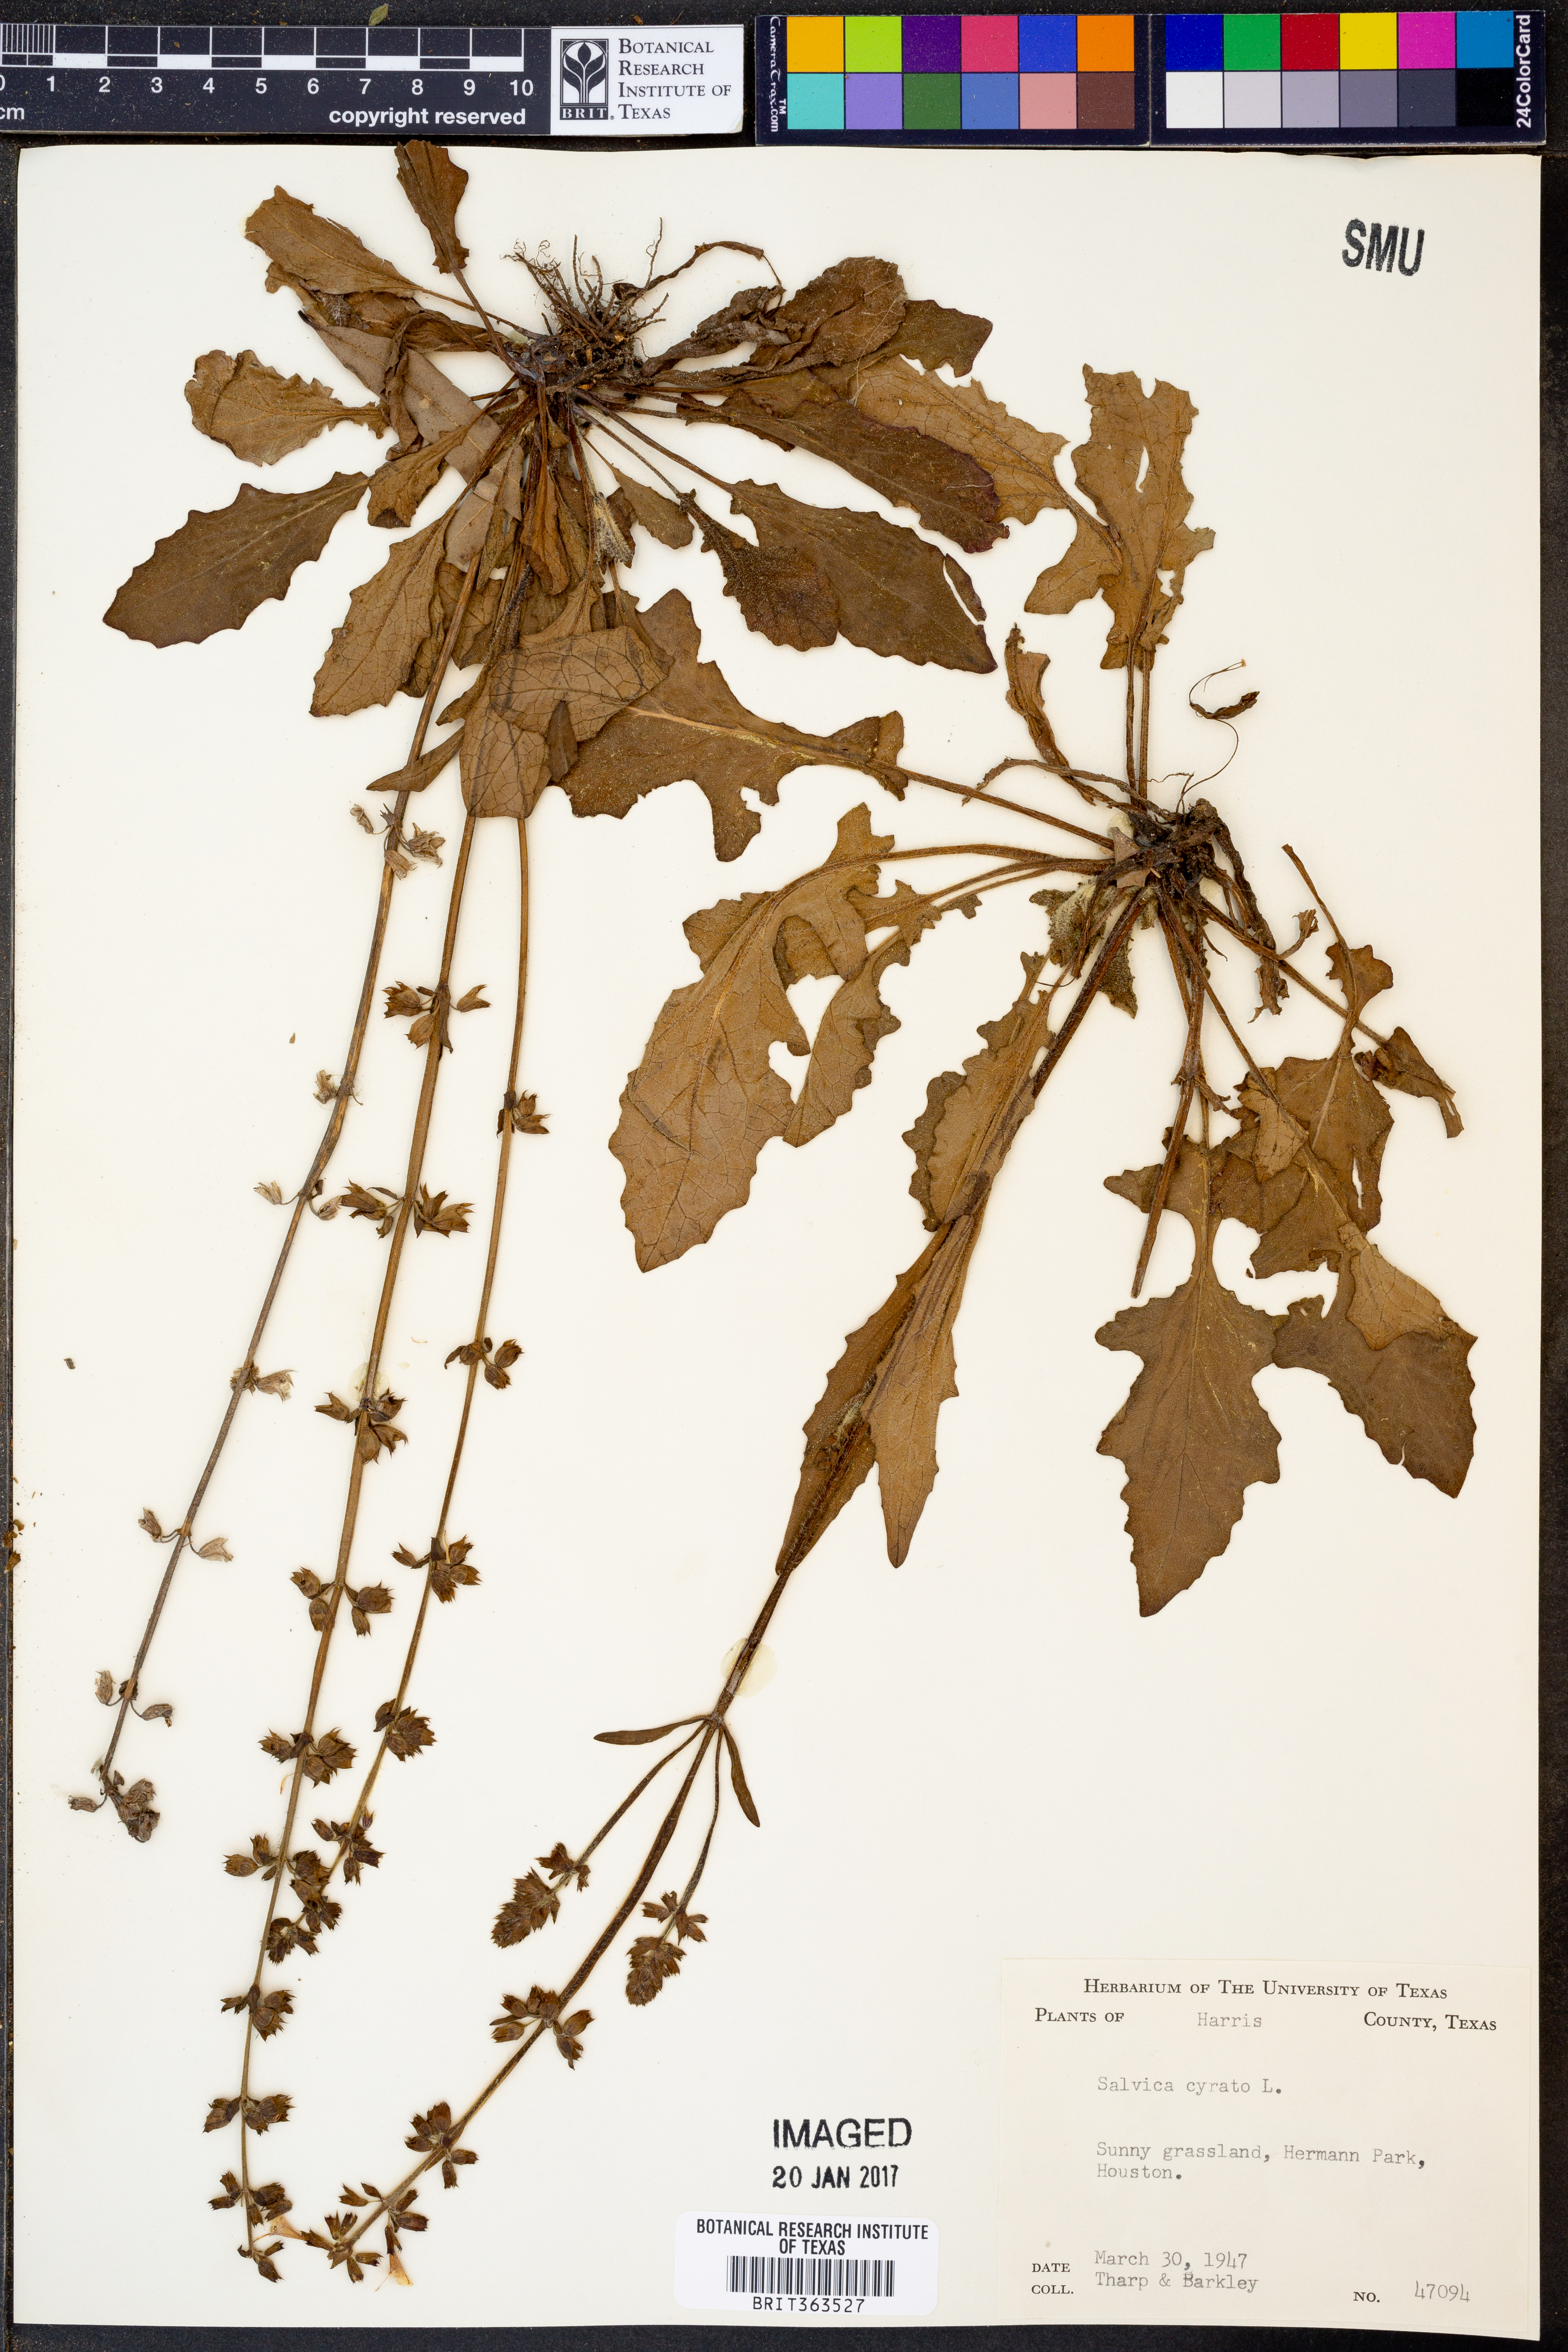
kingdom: Plantae
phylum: Tracheophyta
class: Magnoliopsida
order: Lamiales
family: Lamiaceae
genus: Salvia
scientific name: Salvia lyrata
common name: Cancerweed
